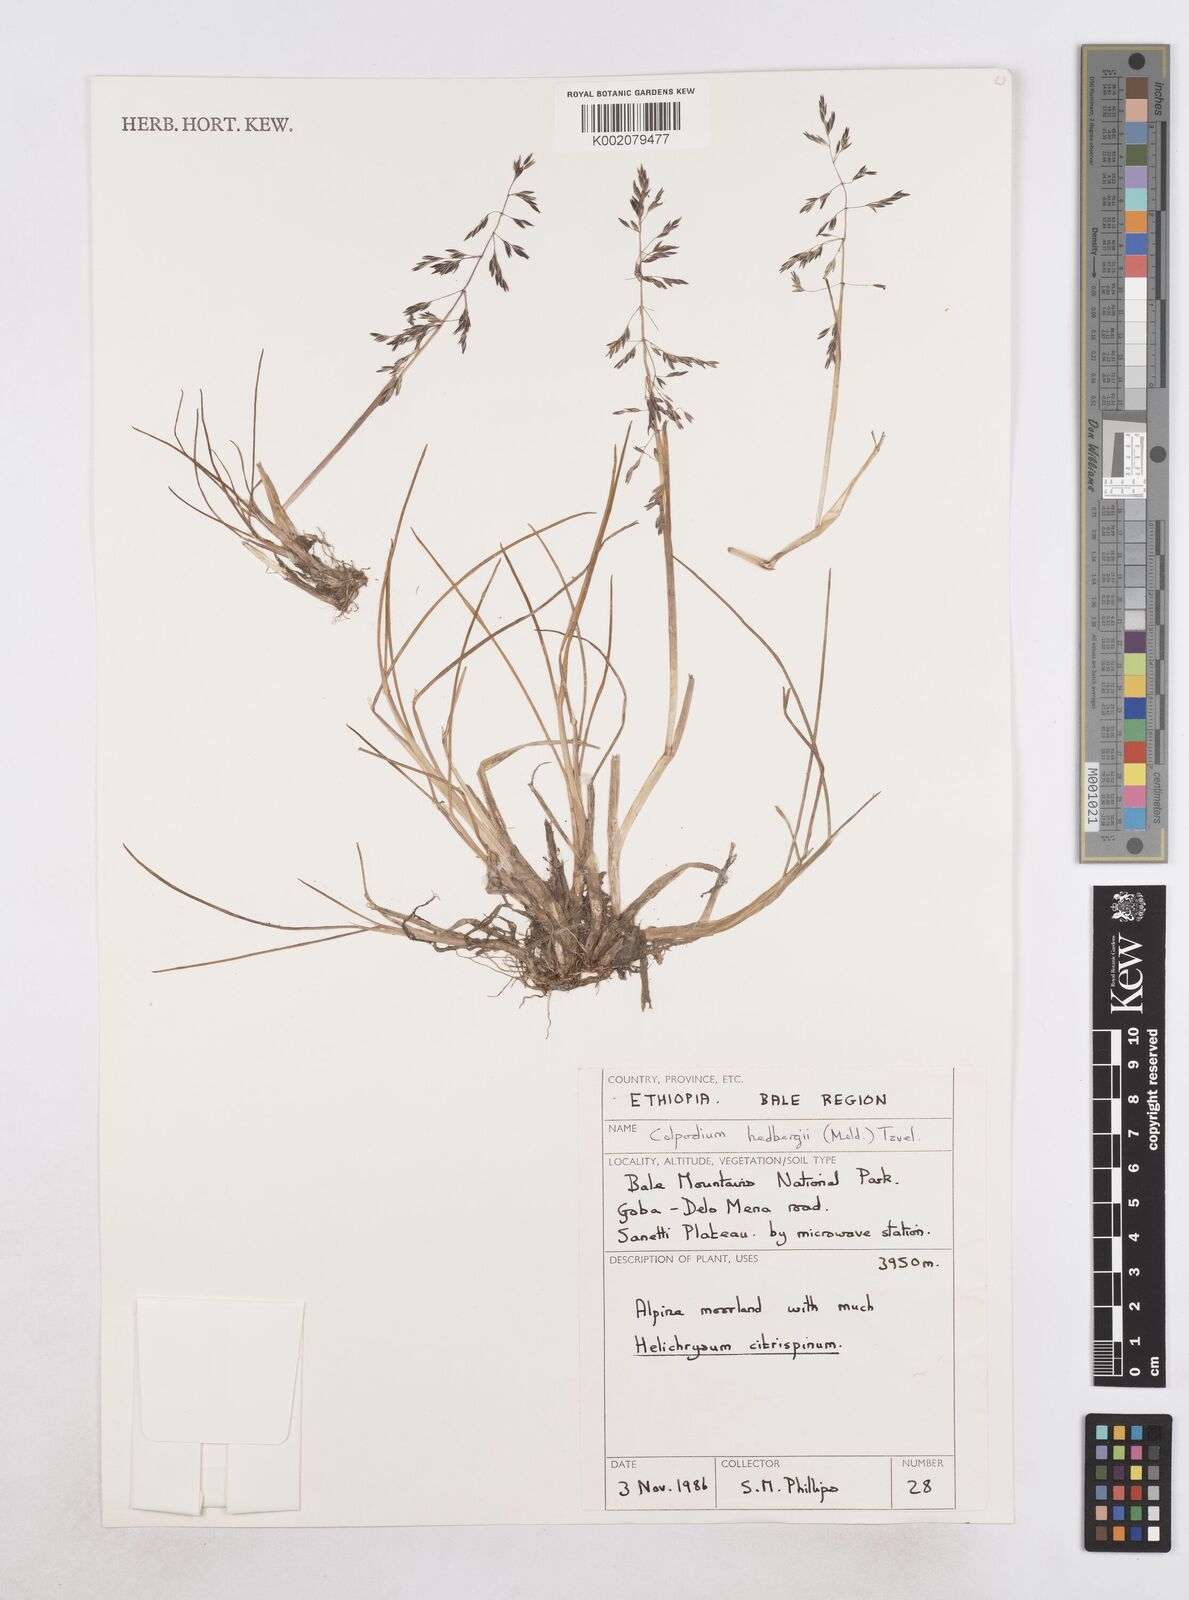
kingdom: Plantae
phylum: Tracheophyta
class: Liliopsida
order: Poales
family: Poaceae
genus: Colpodium
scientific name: Colpodium hedbergii
